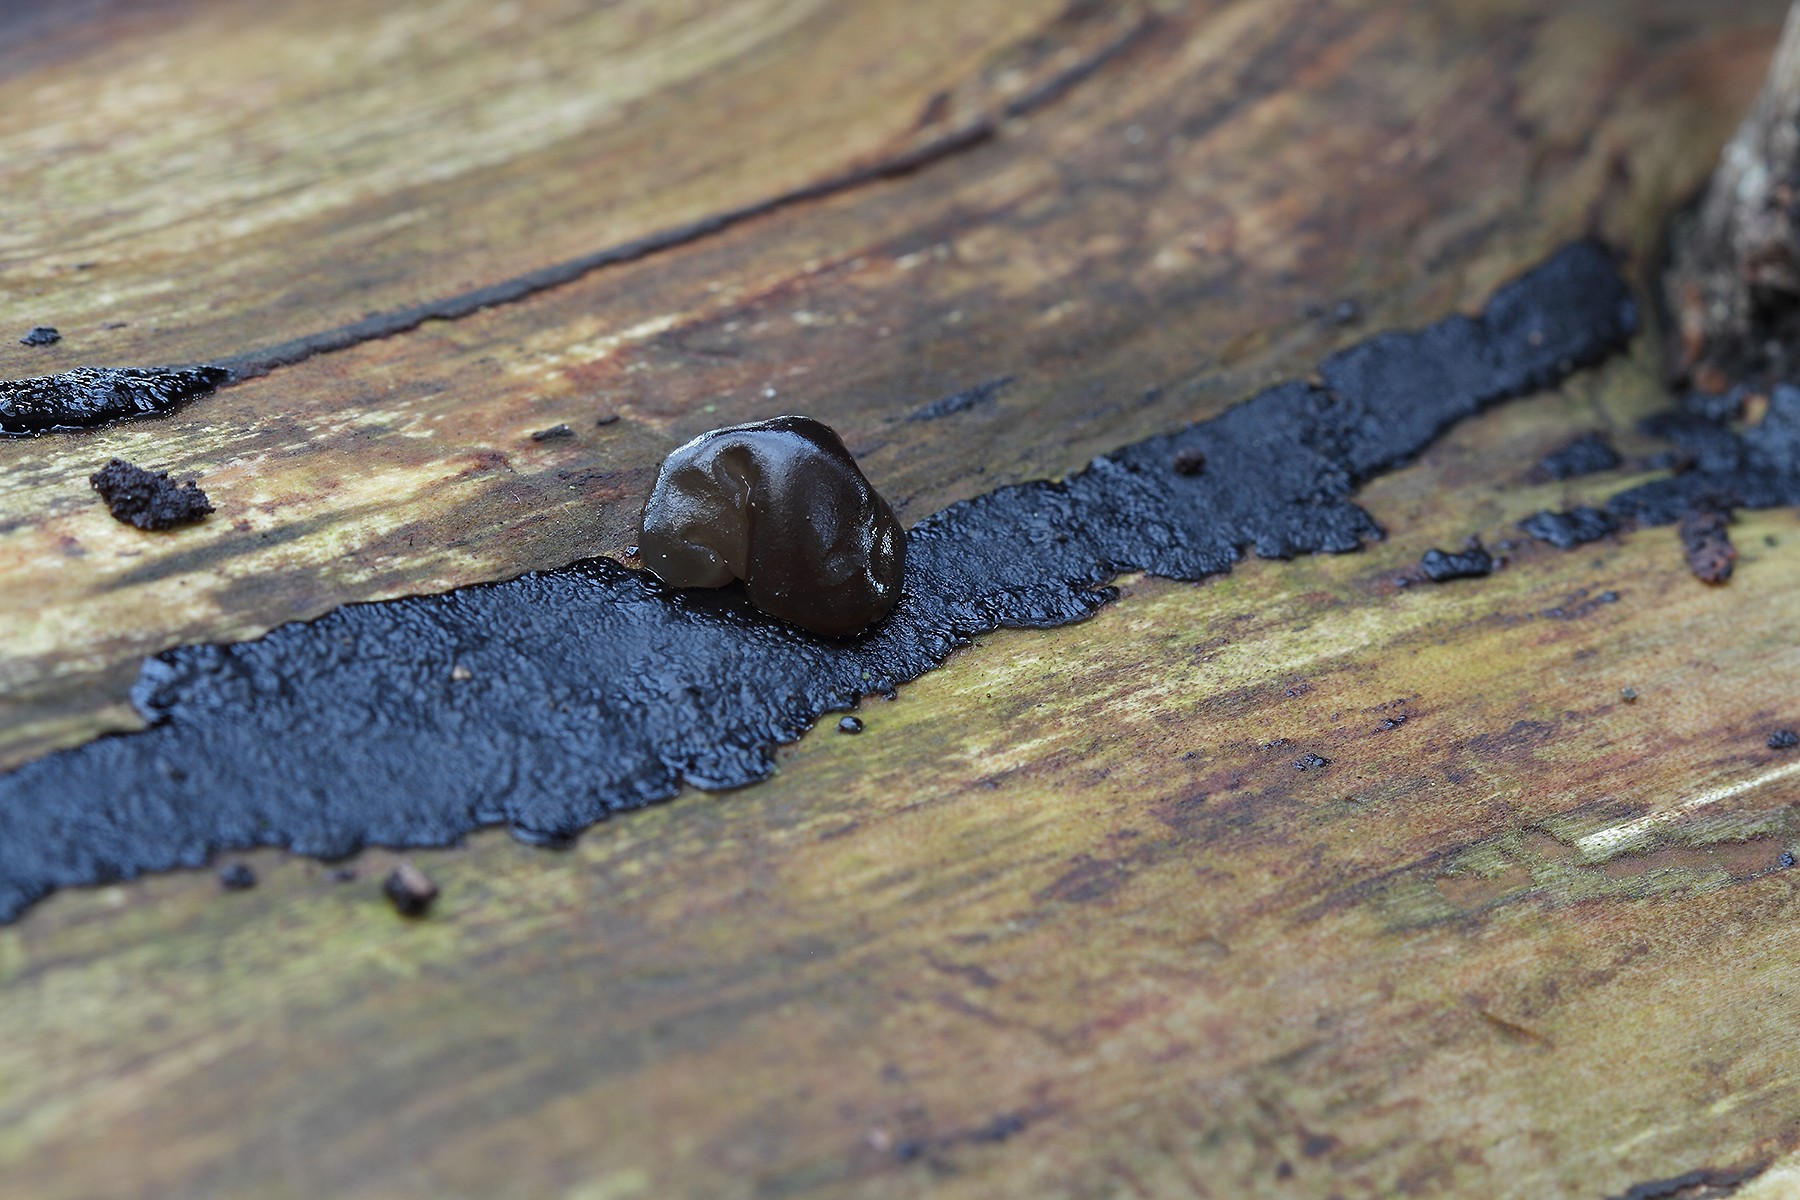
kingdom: Fungi
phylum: Basidiomycota
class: Agaricomycetes
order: Auriculariales
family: Auriculariaceae
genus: Exidia
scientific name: Exidia pithya
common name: gran-bævretop
